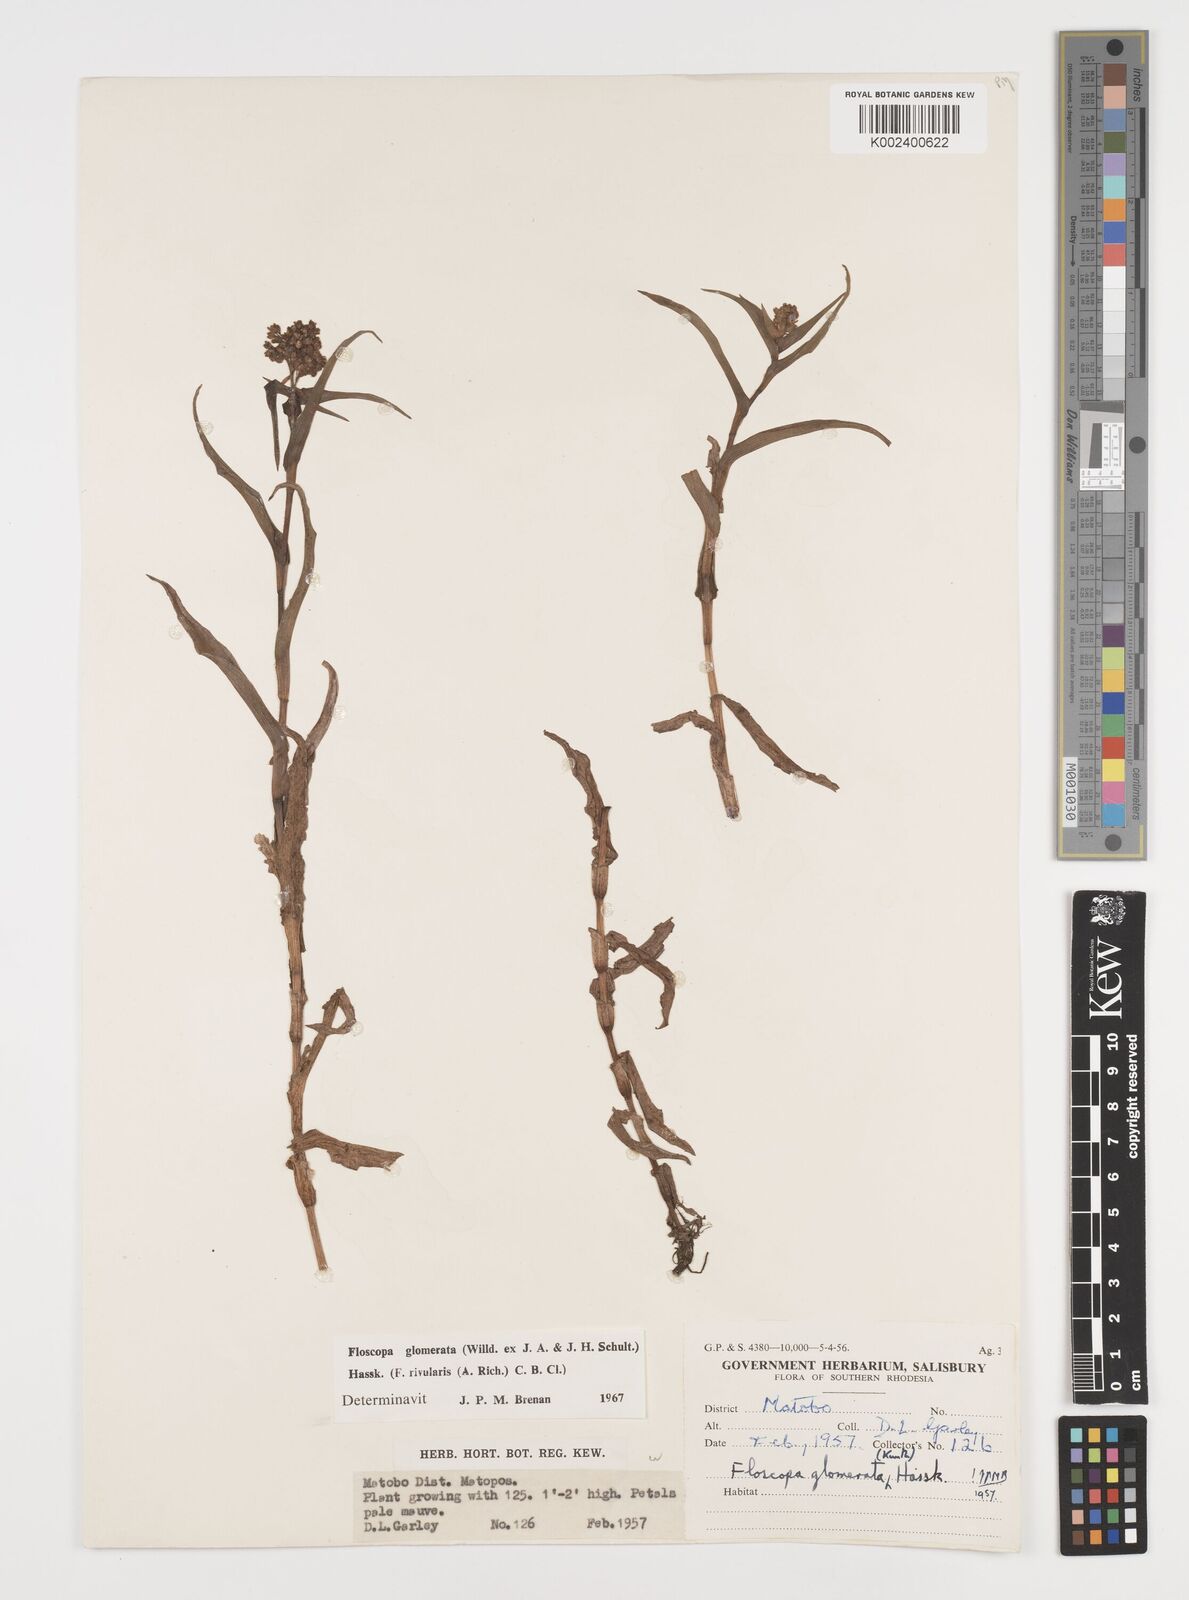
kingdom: Plantae
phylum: Tracheophyta
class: Liliopsida
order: Commelinales
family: Commelinaceae
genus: Floscopa
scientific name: Floscopa glomerata
